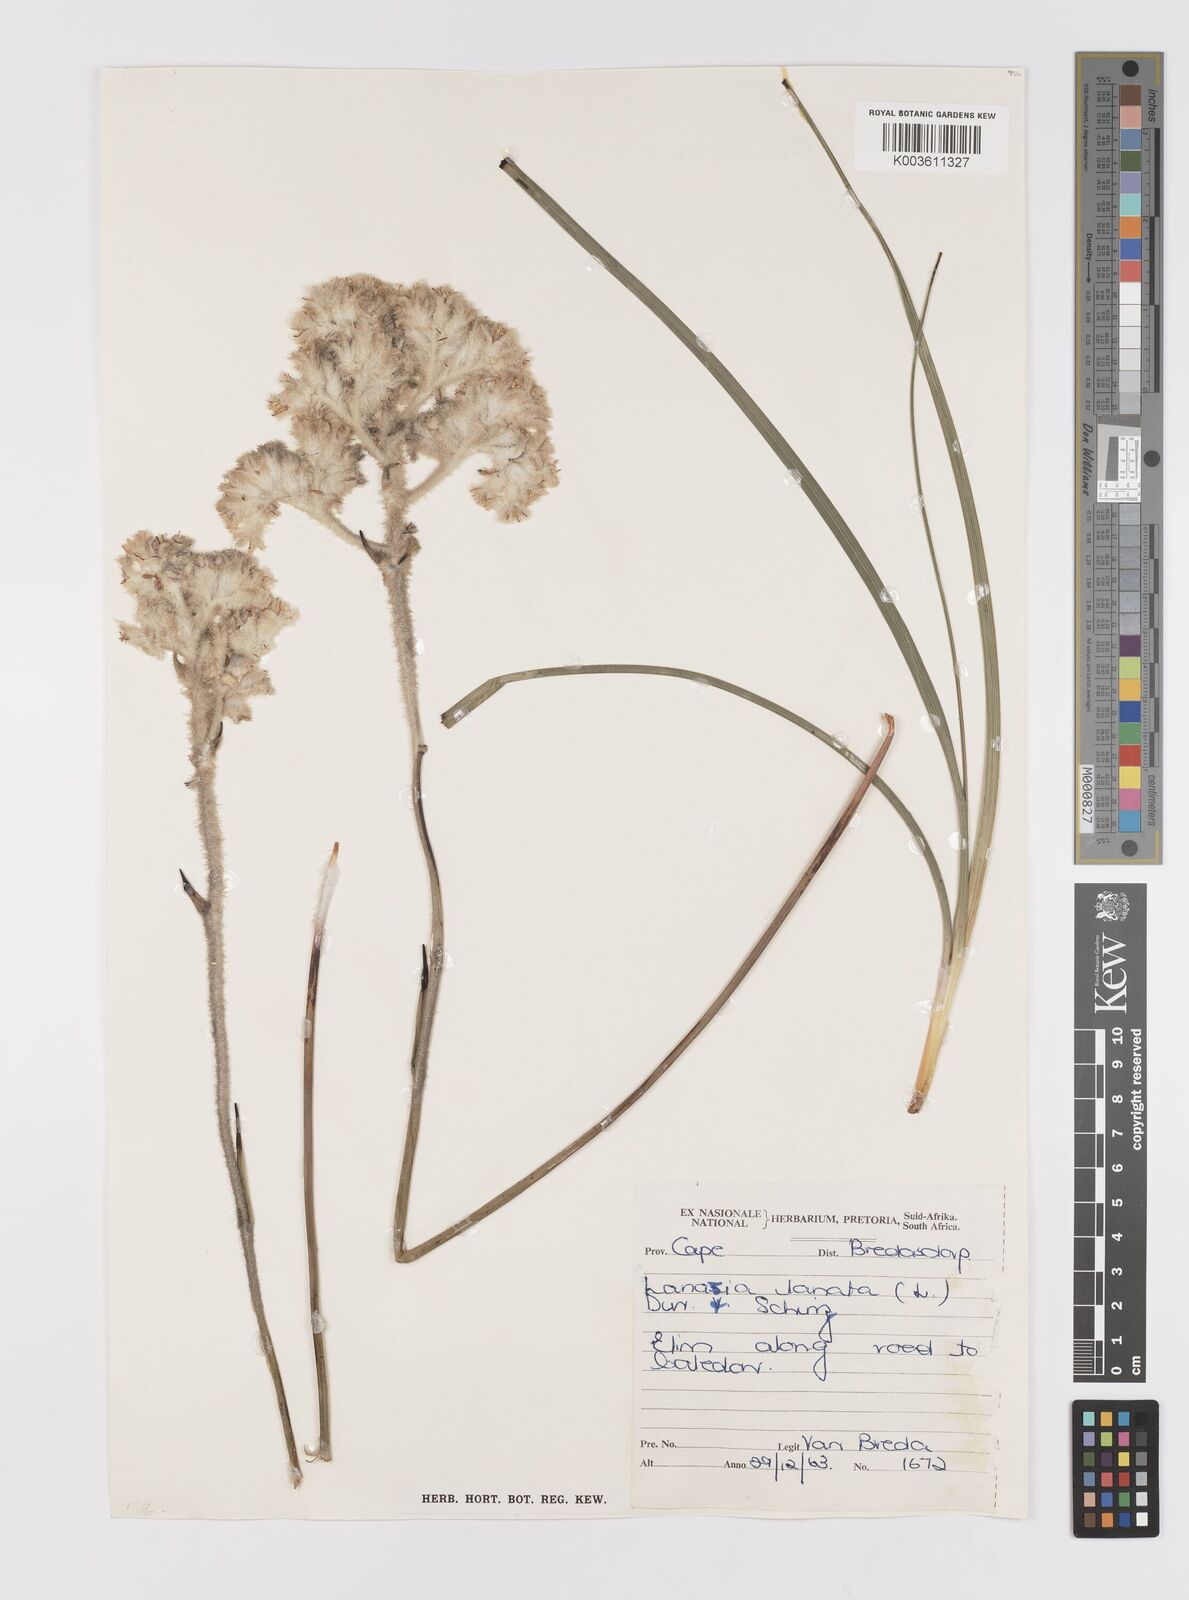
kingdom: Plantae
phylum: Tracheophyta
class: Liliopsida
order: Asparagales
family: Lanariaceae
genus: Lanaria
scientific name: Lanaria lanata
